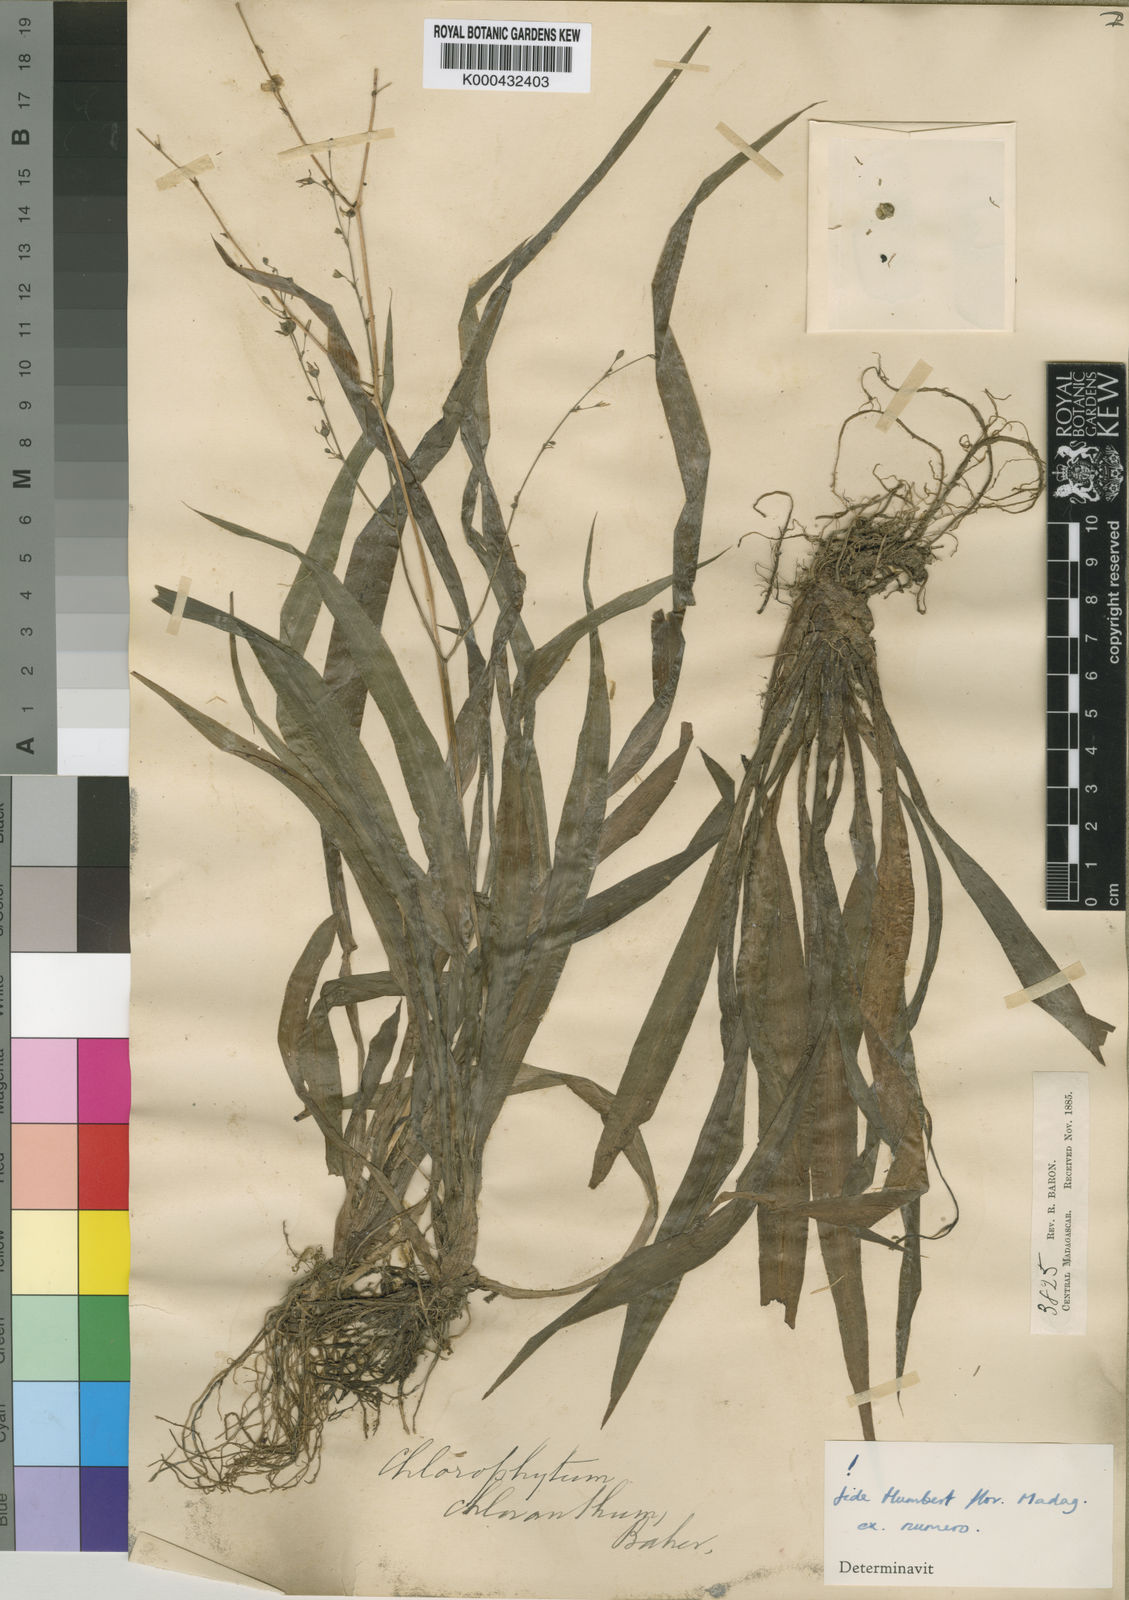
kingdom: Plantae
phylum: Tracheophyta
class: Liliopsida
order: Asparagales
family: Asparagaceae
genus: Chlorophytum
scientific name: Chlorophytum chloranthum
